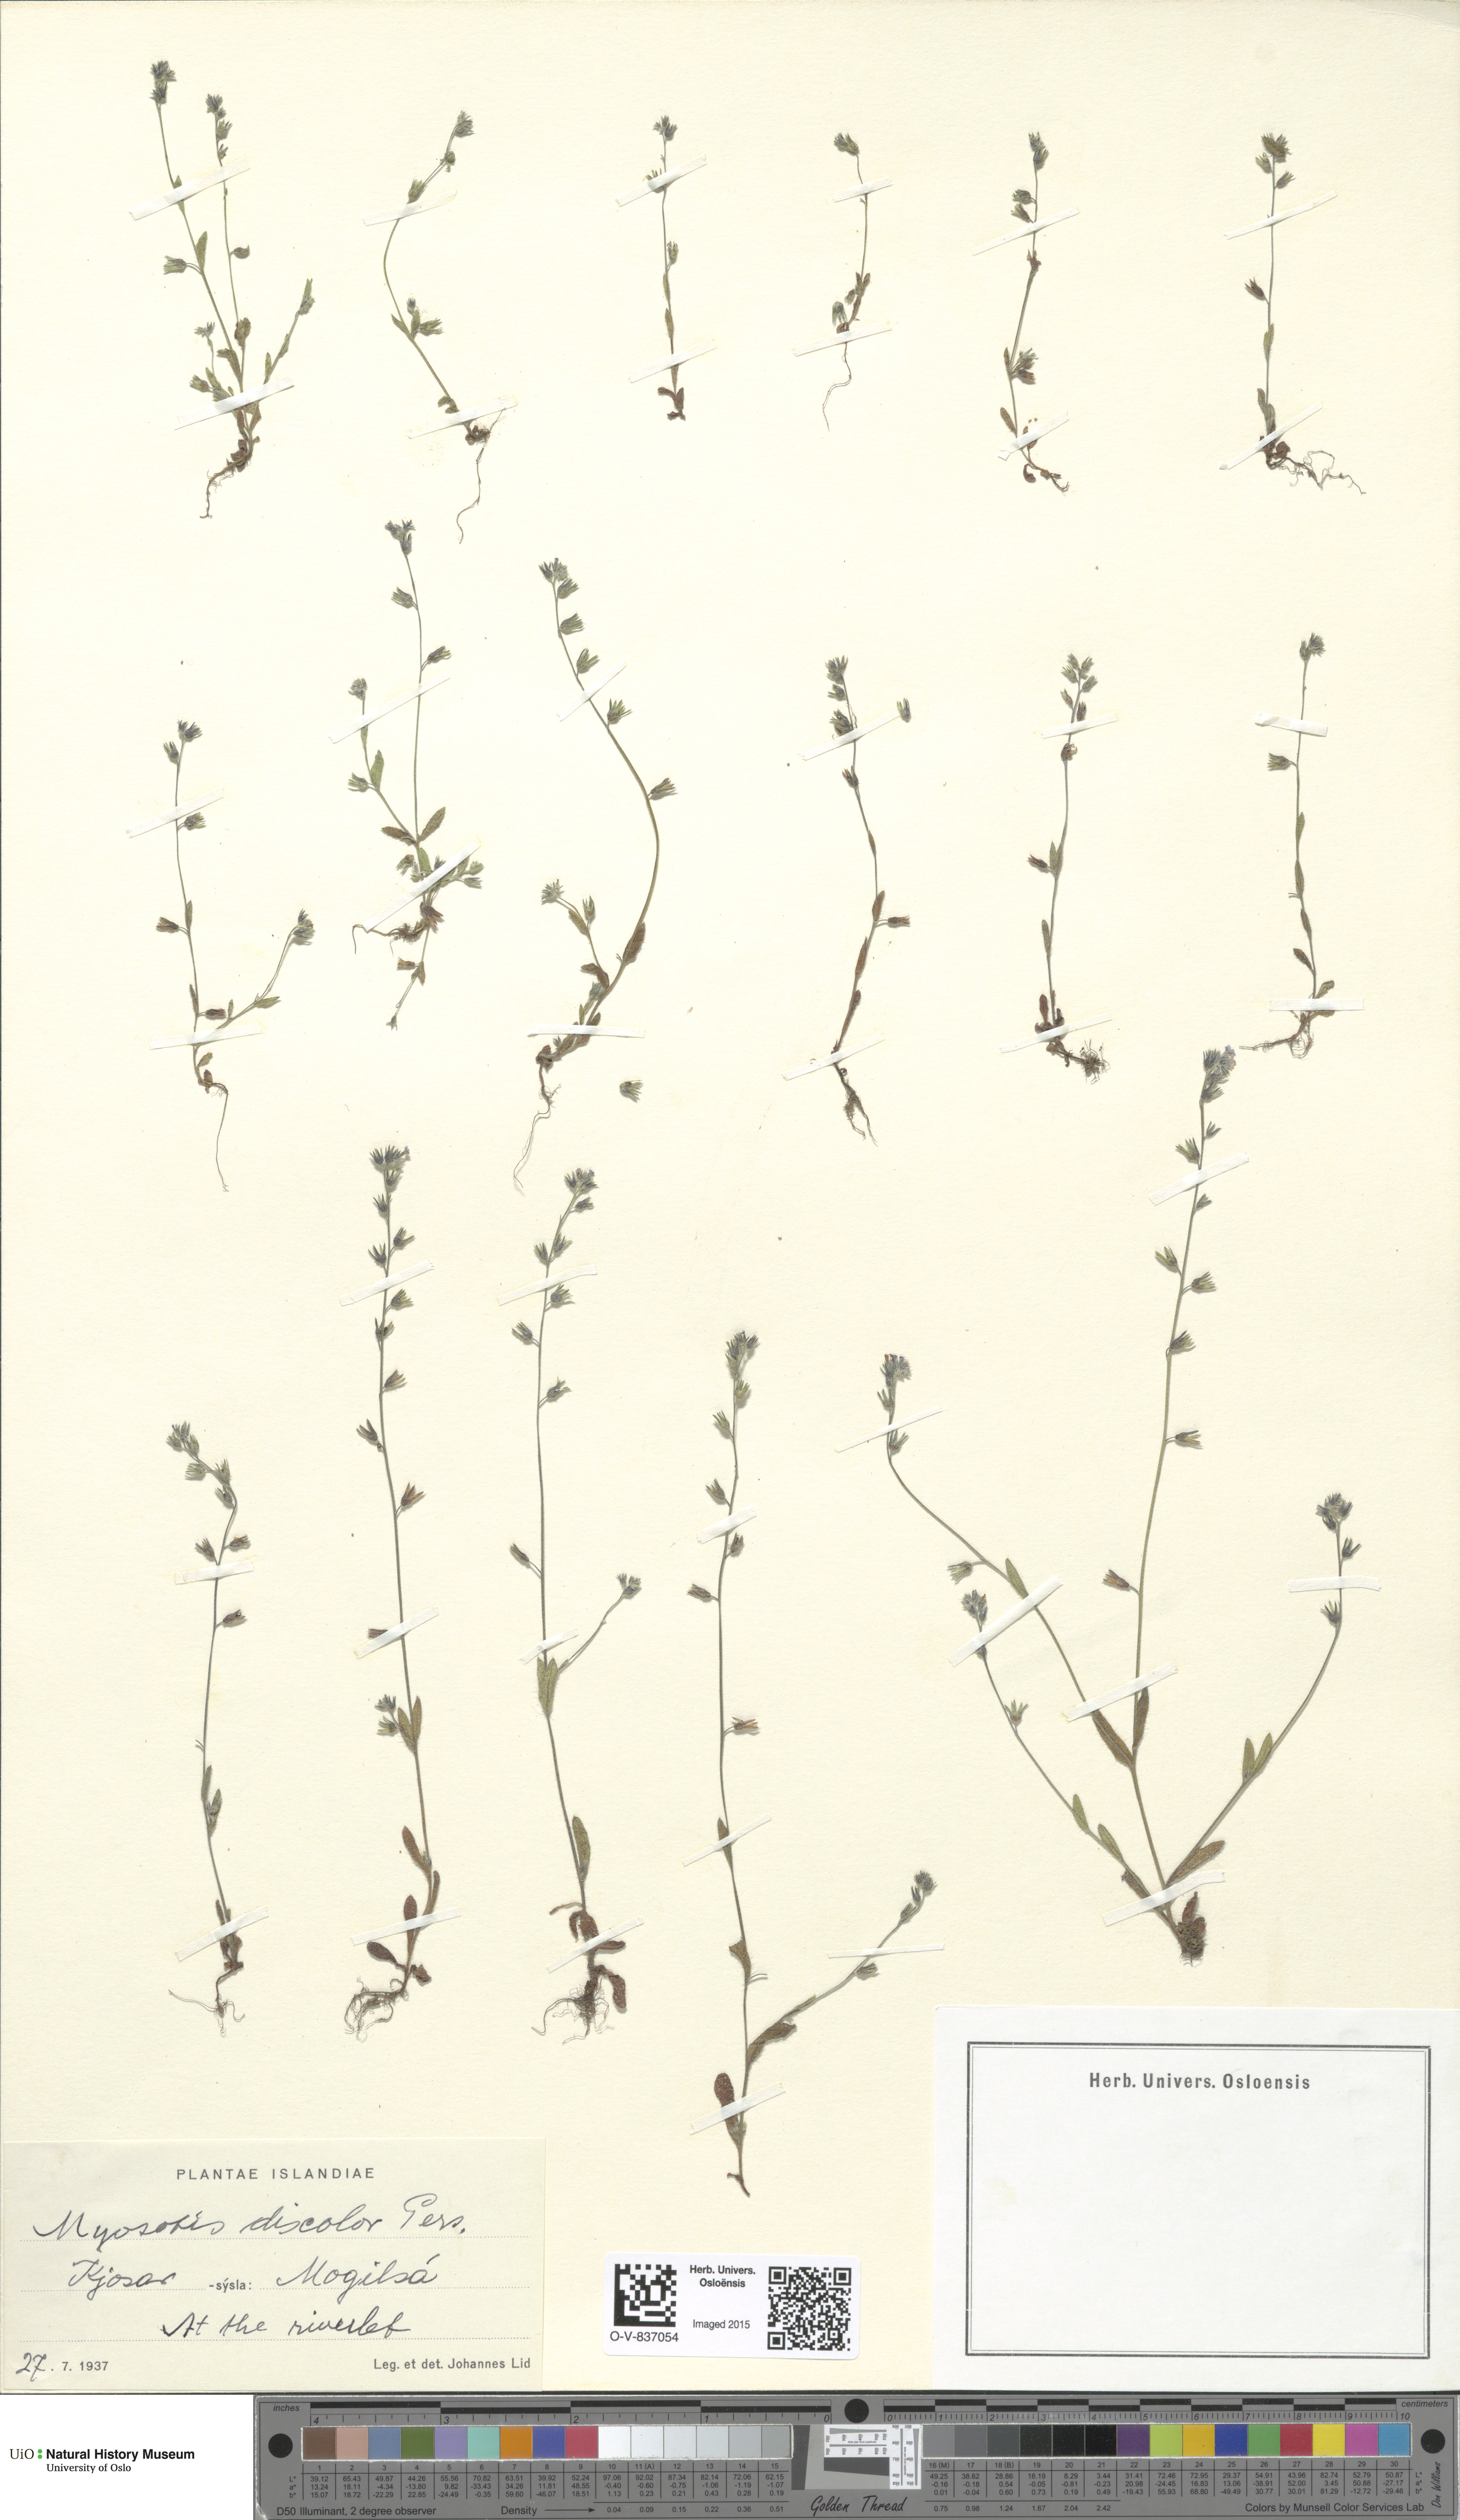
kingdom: Plantae
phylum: Tracheophyta
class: Magnoliopsida
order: Boraginales
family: Boraginaceae
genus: Myosotis
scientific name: Myosotis discolor
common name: Changing forget-me-not
